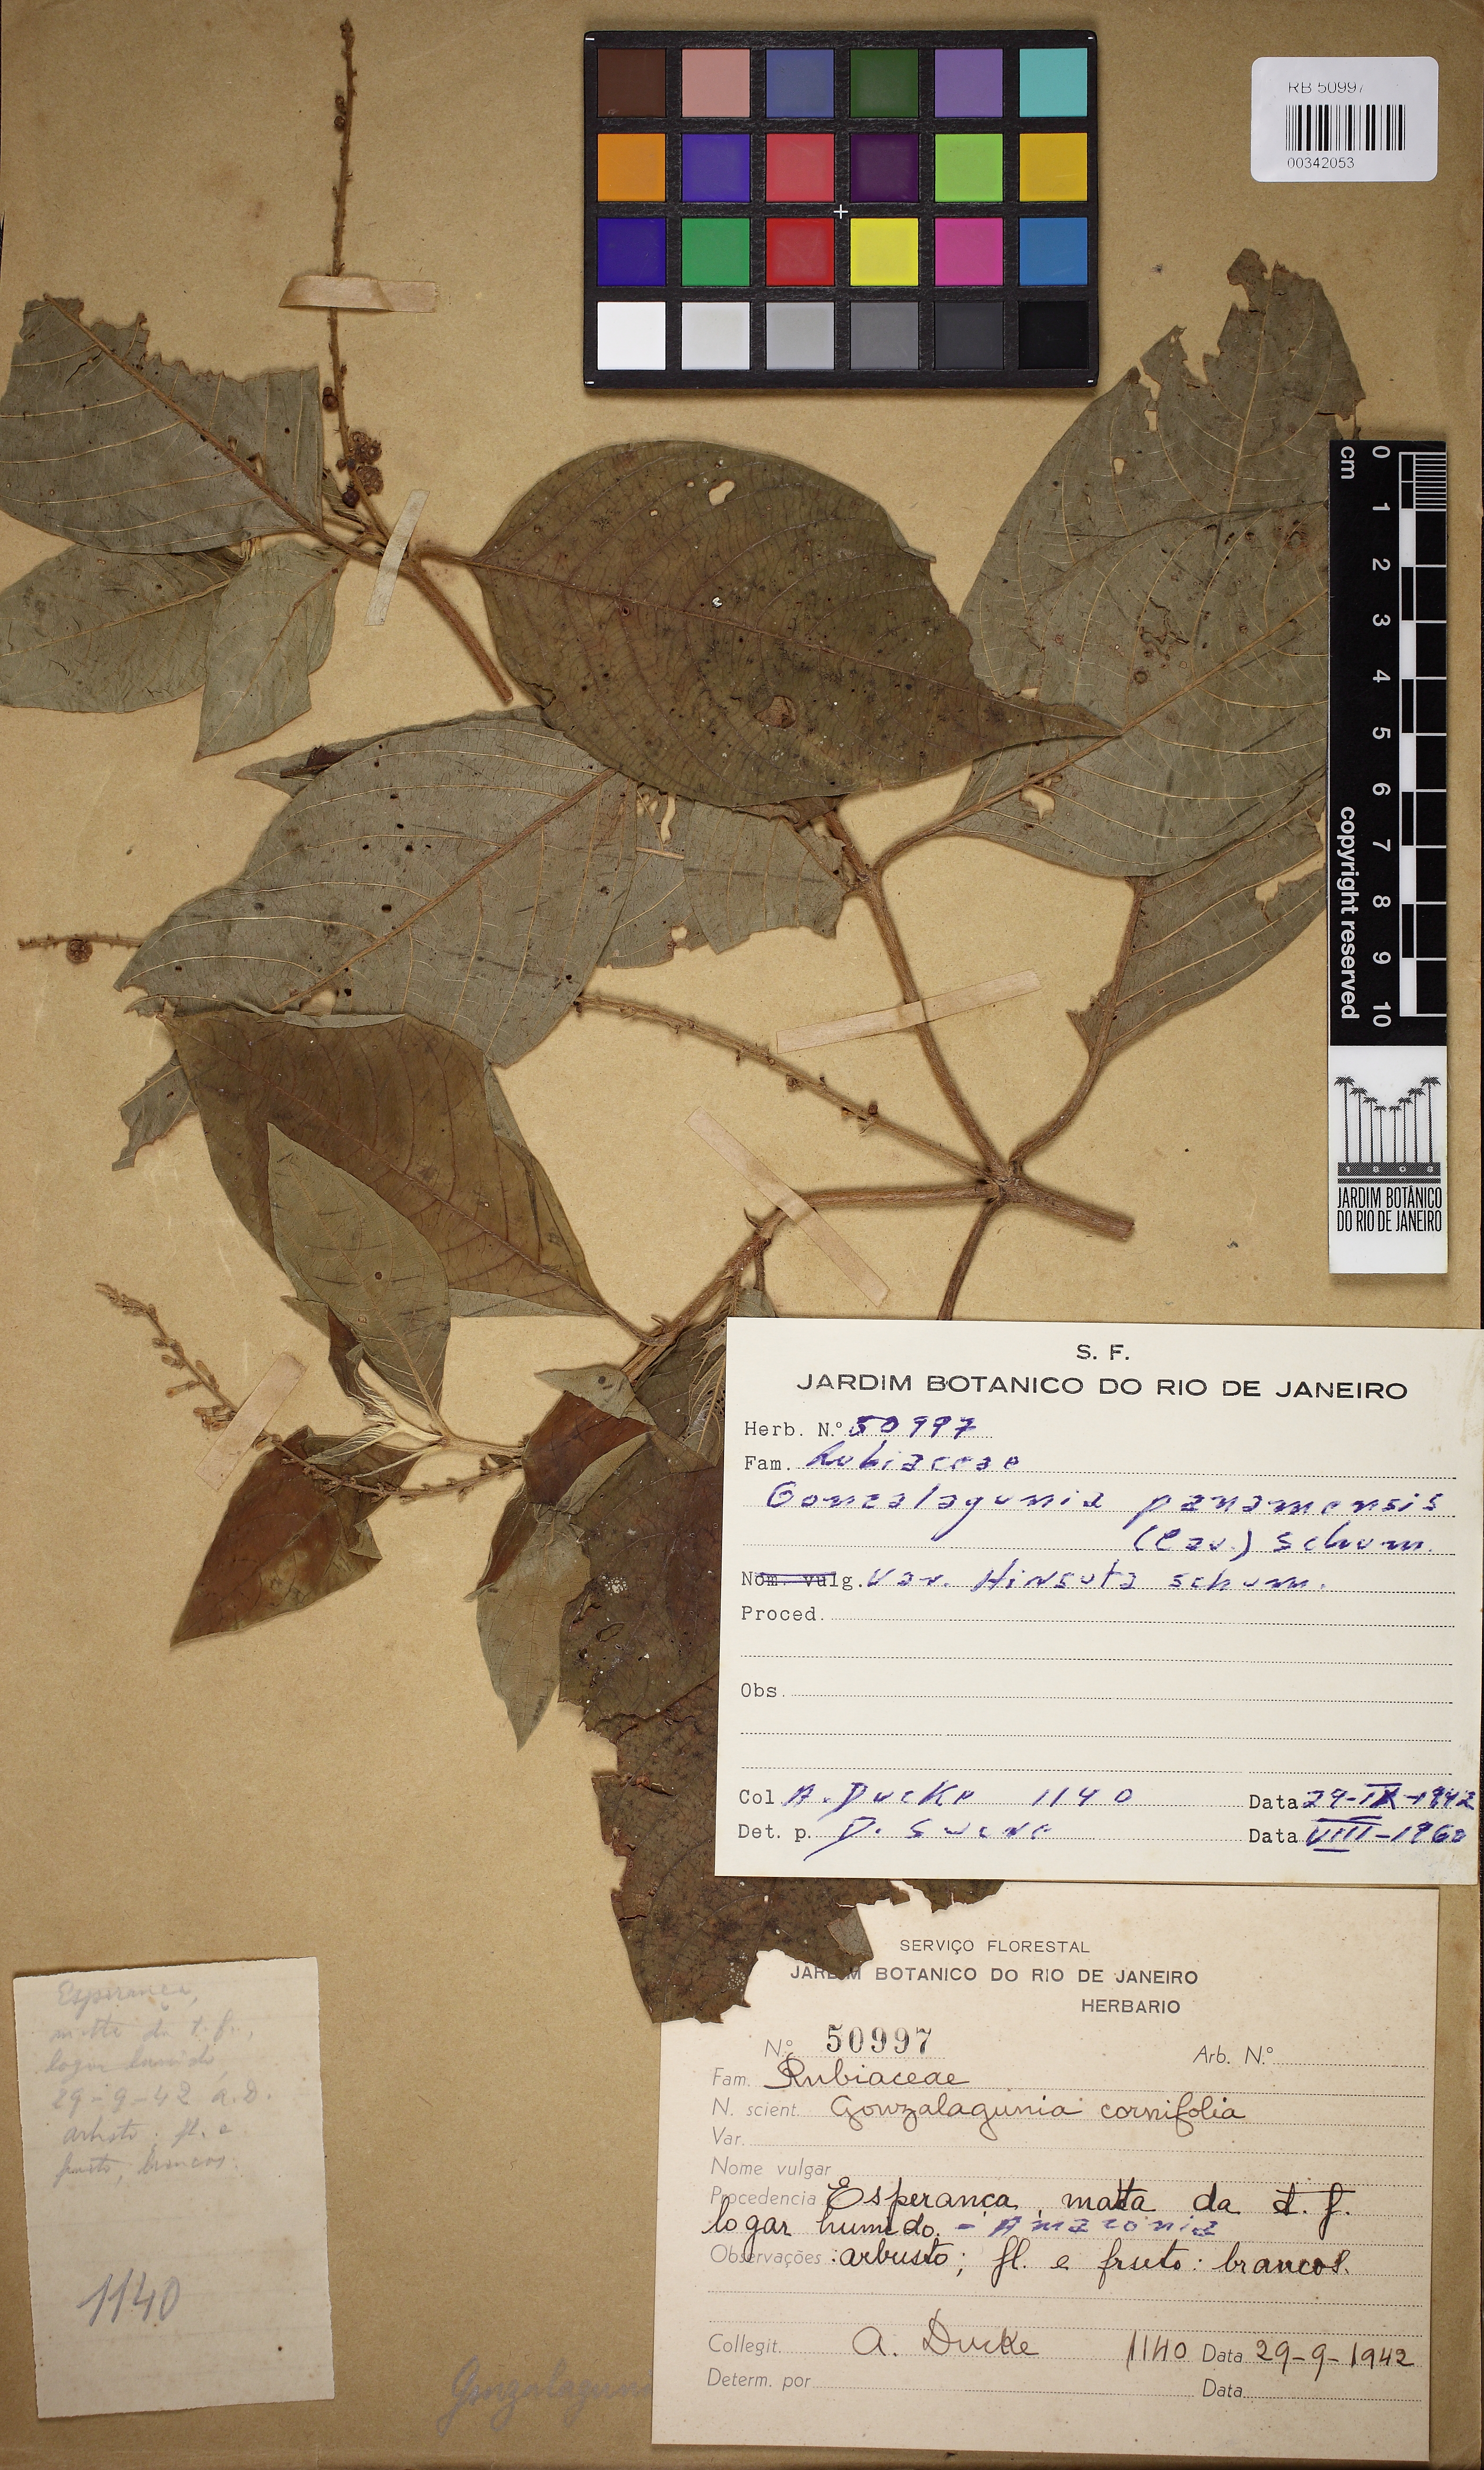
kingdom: Plantae
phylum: Tracheophyta
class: Magnoliopsida
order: Gentianales
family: Rubiaceae
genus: Gonzalagunia
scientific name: Gonzalagunia cornifolia
